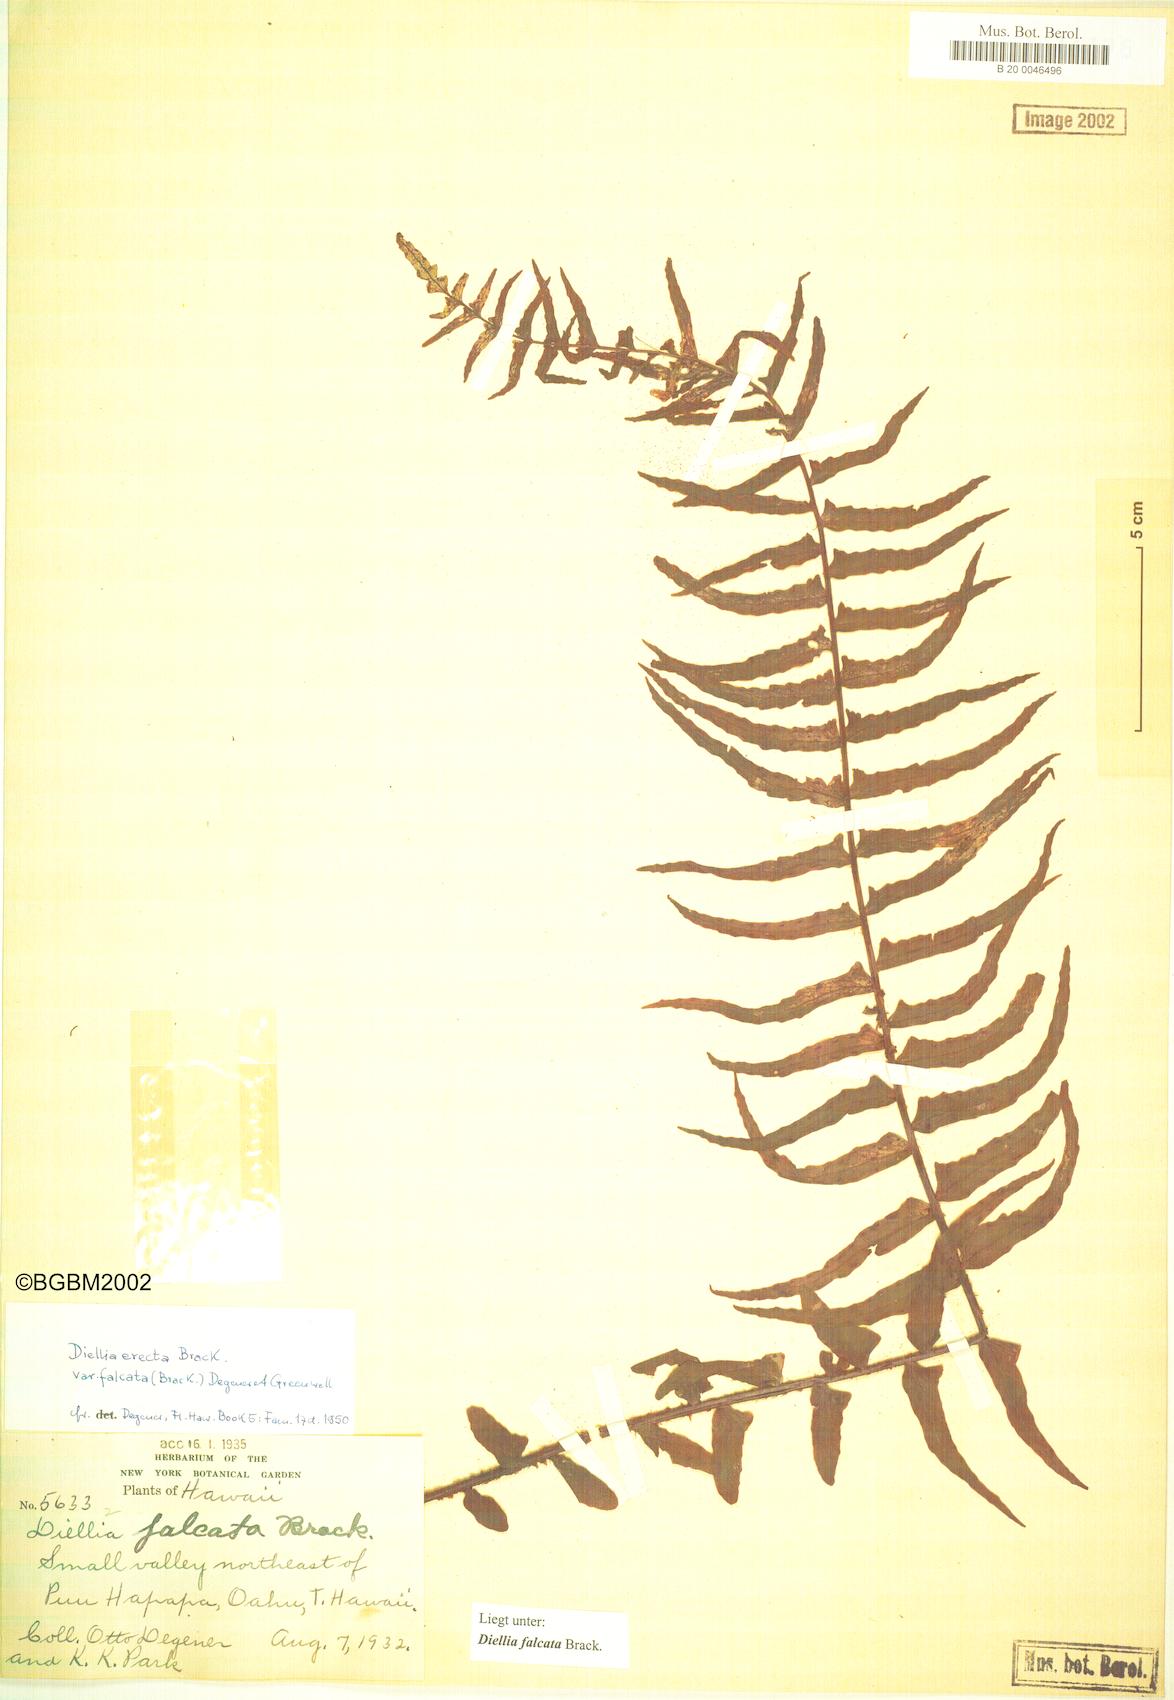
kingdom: Plantae
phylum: Tracheophyta
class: Polypodiopsida
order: Polypodiales
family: Aspleniaceae
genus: Asplenium
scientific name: Asplenium dielfalcatum
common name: Sickle island spleenwort
